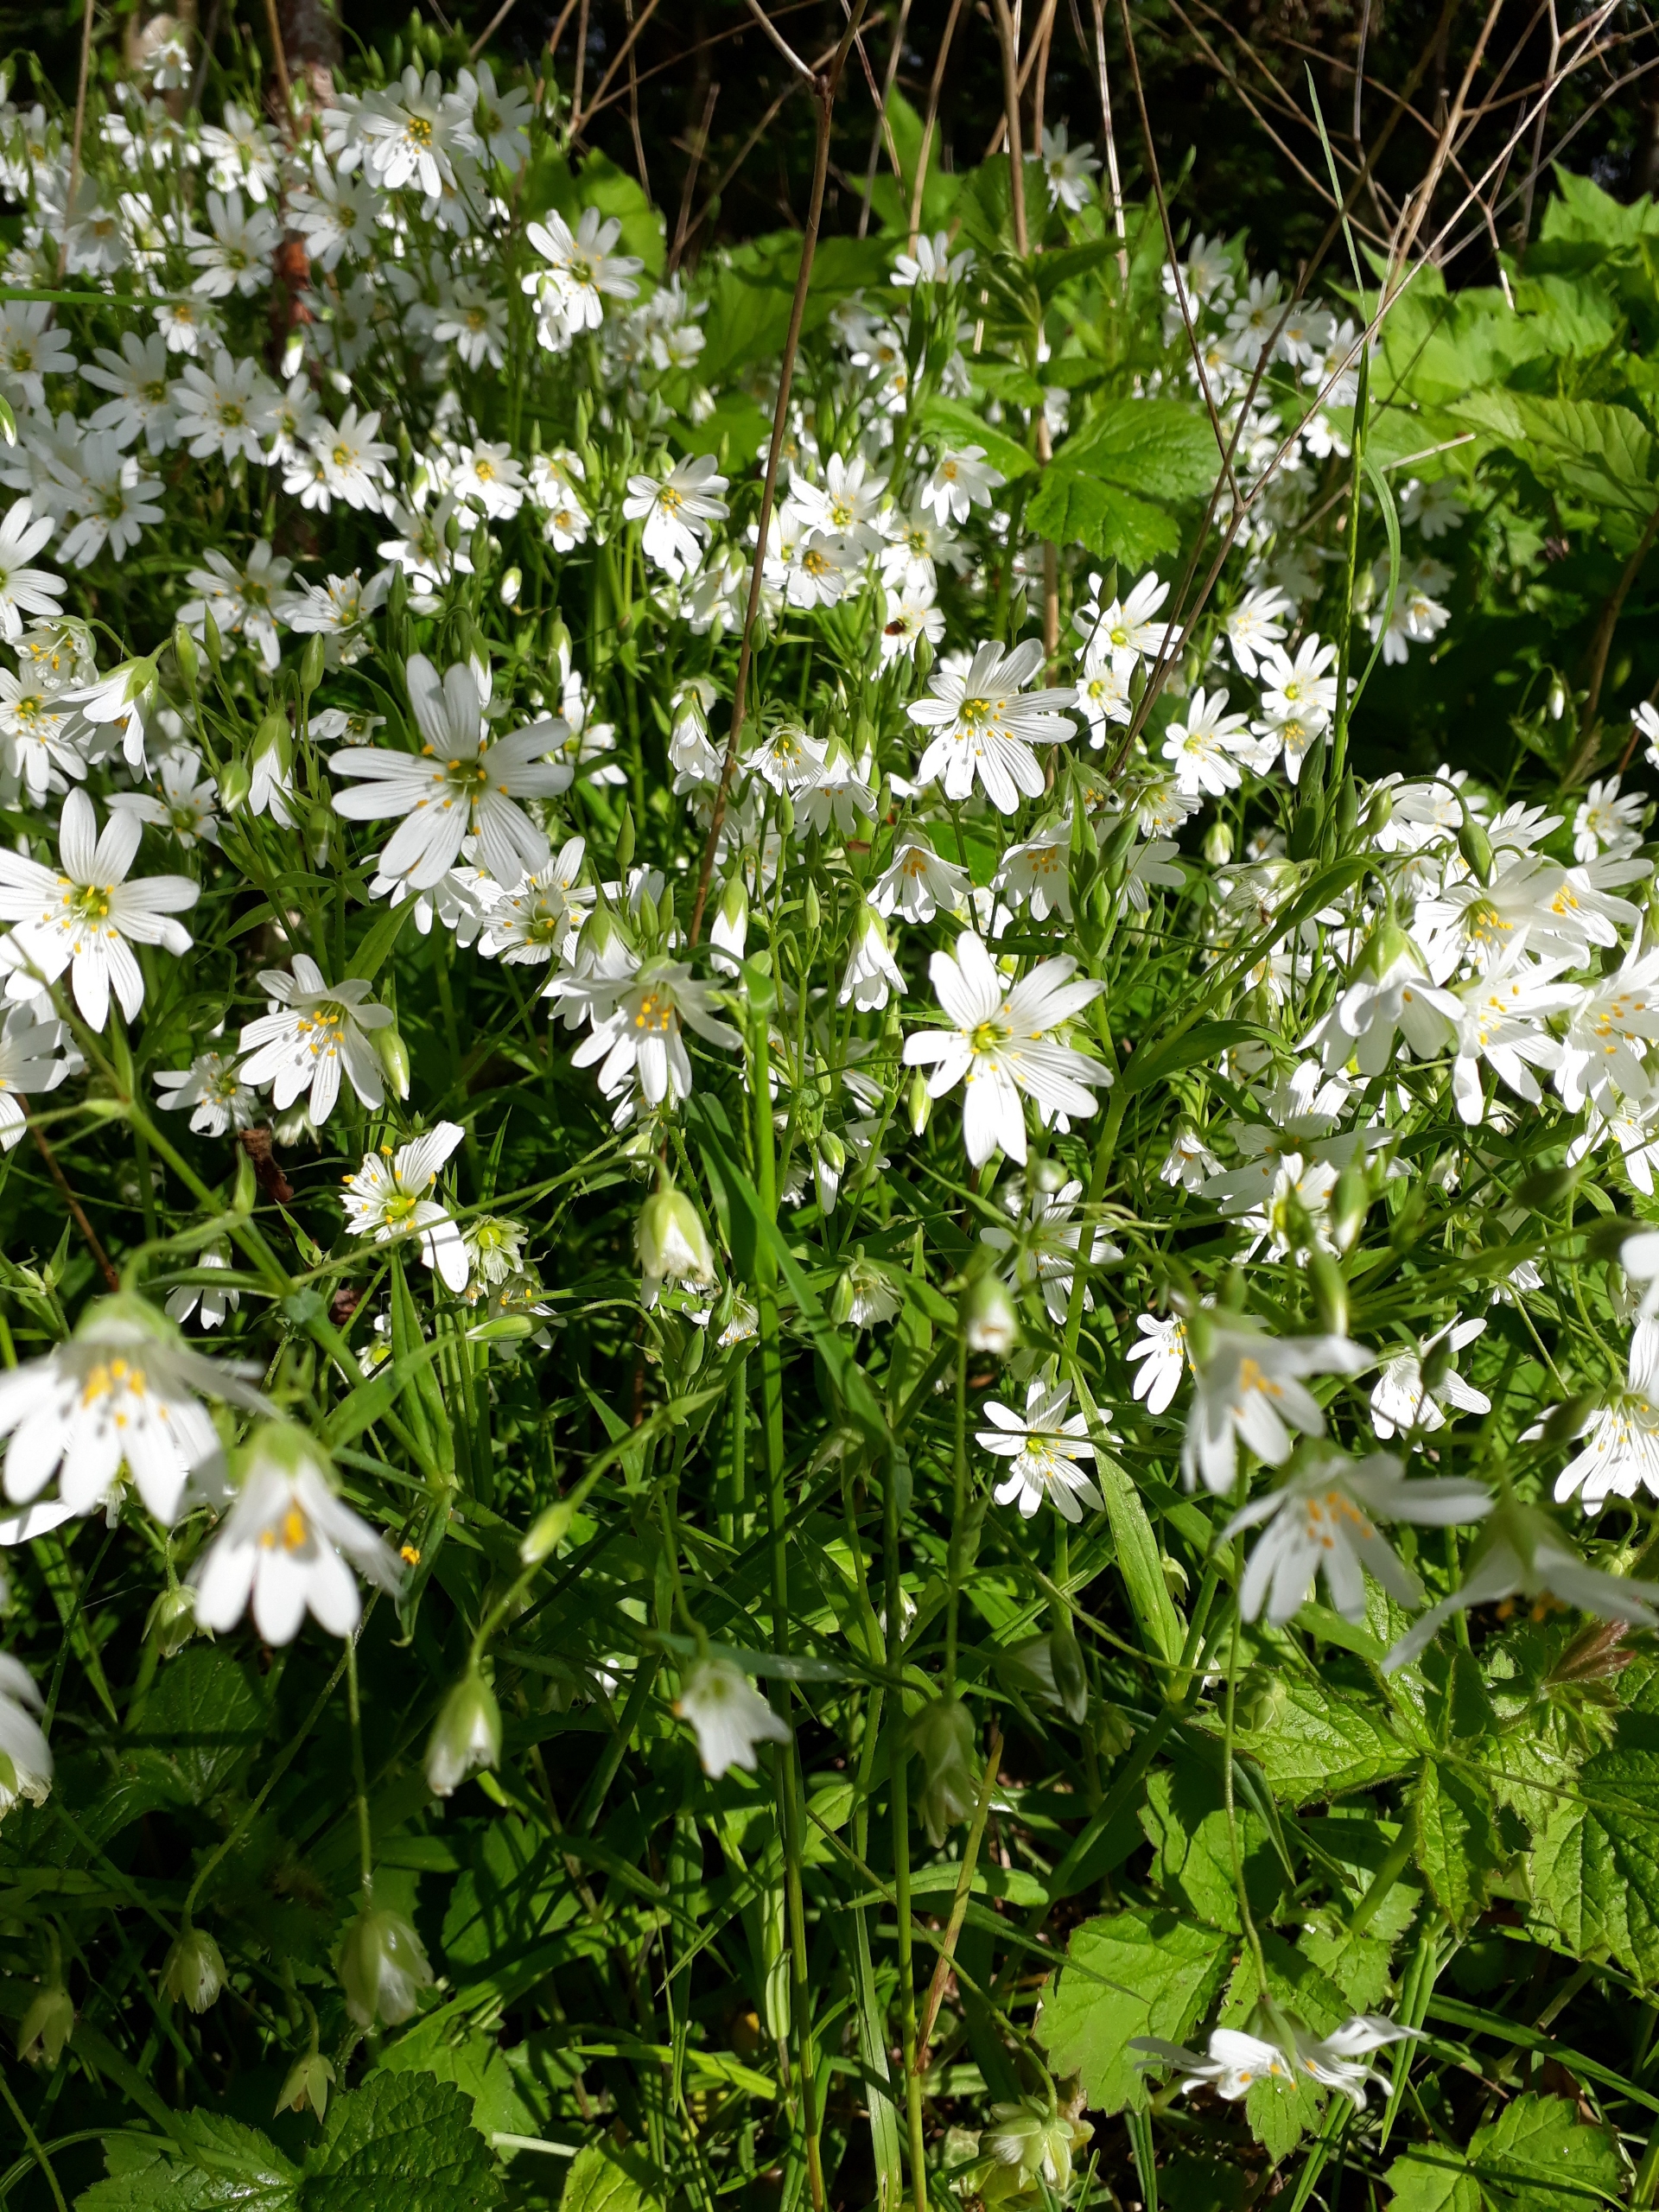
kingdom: Plantae
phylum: Tracheophyta
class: Magnoliopsida
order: Caryophyllales
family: Caryophyllaceae
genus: Rabelera
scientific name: Rabelera holostea
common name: Stor fladstjerne
